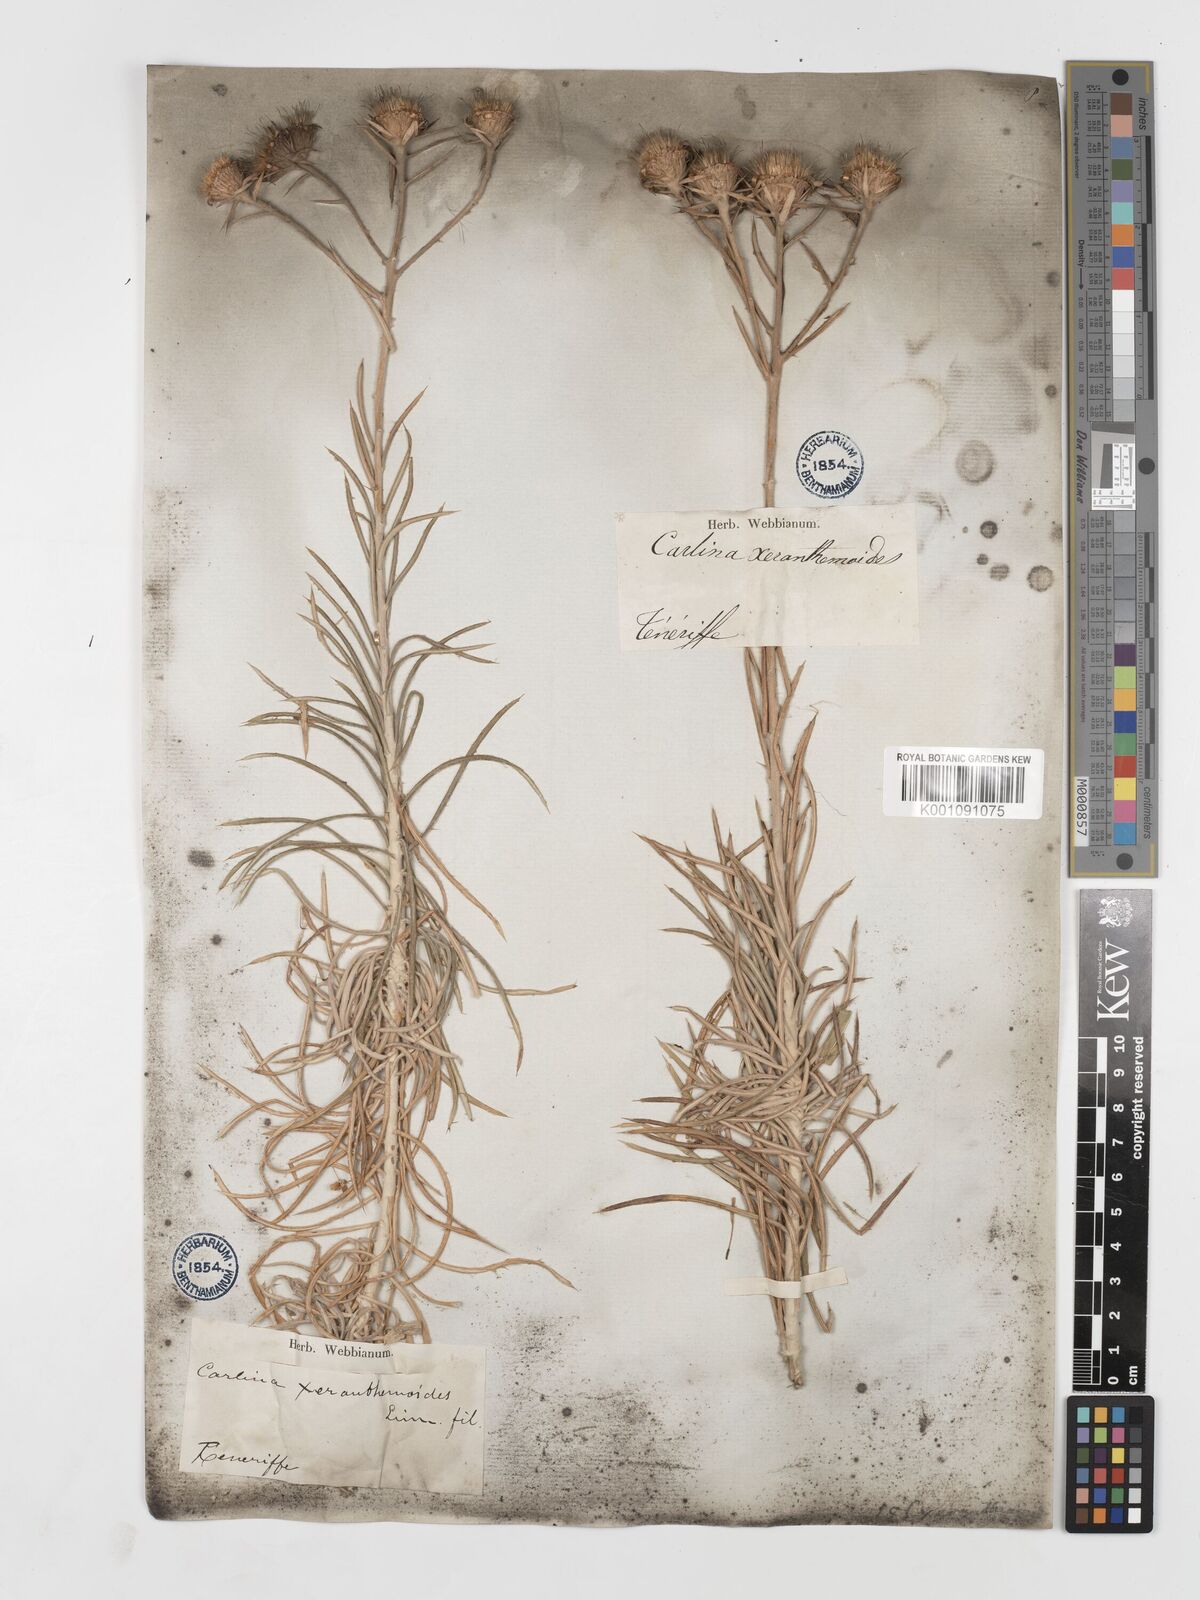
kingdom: Plantae
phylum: Tracheophyta
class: Magnoliopsida
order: Asterales
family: Asteraceae
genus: Carlina
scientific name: Carlina xeranthemoides
